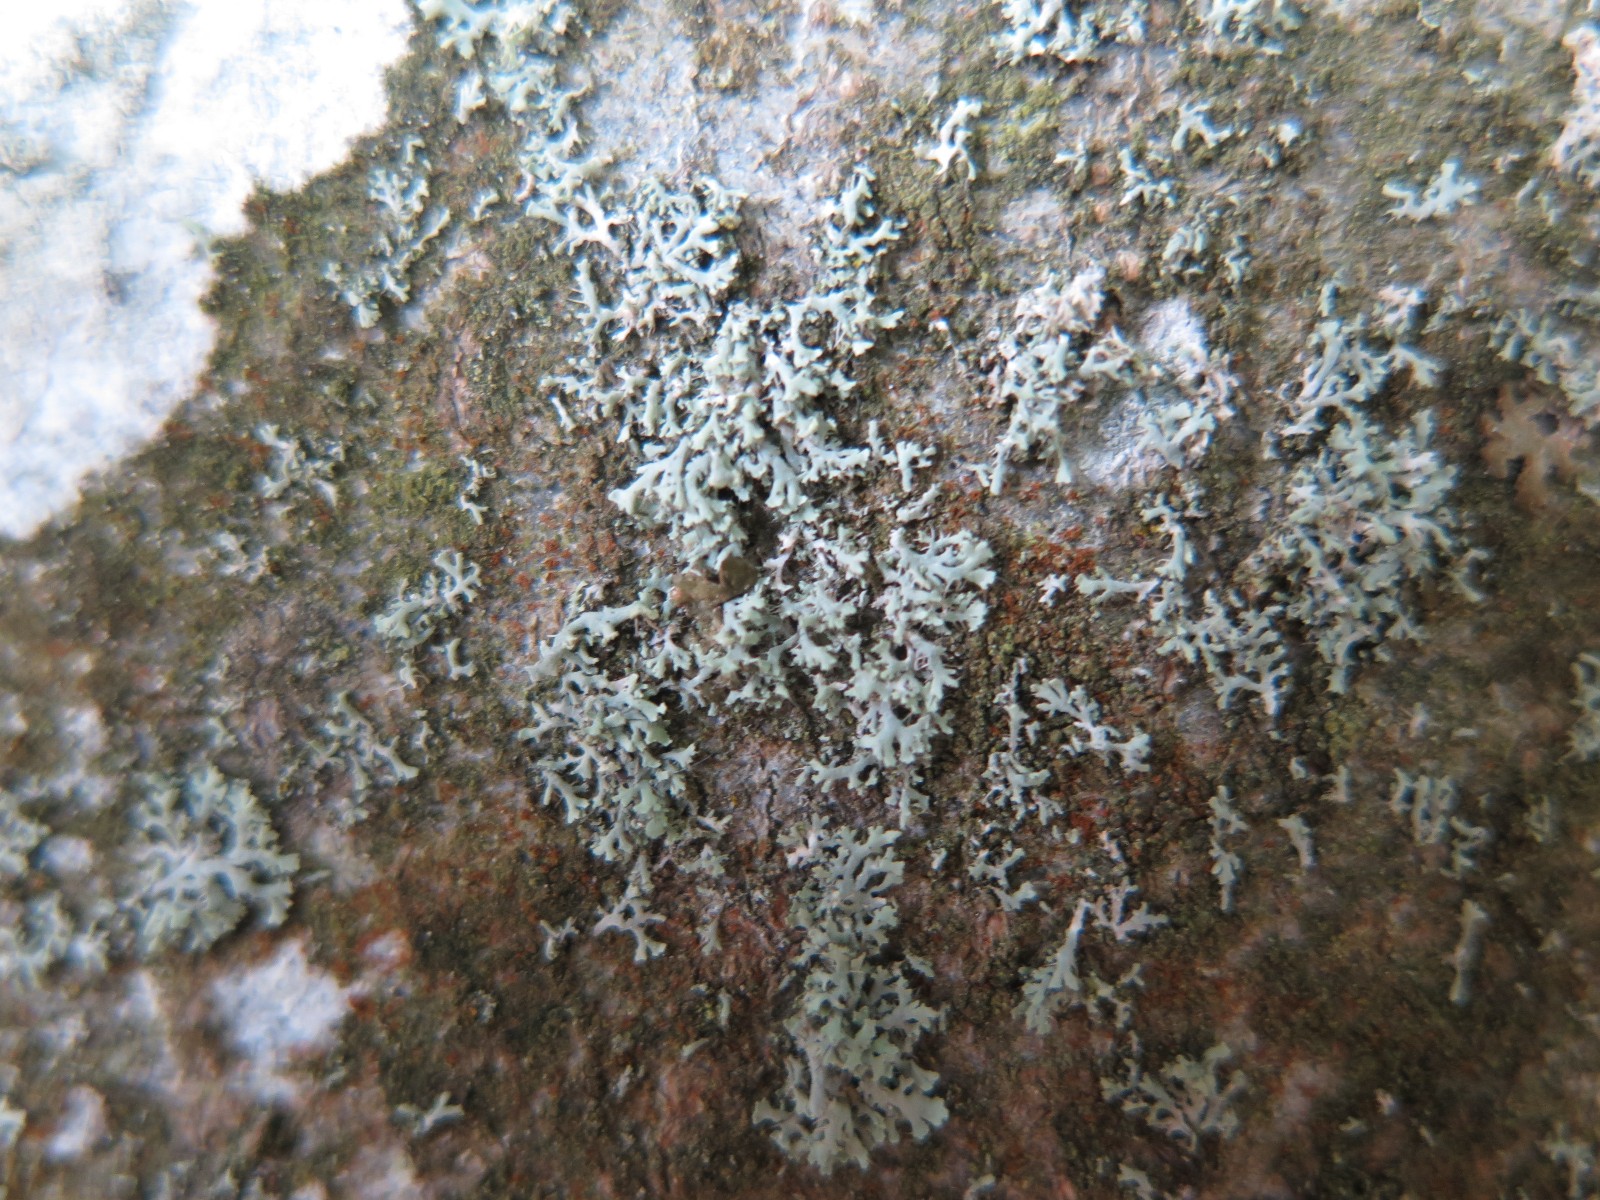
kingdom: Fungi
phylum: Ascomycota
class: Lecanoromycetes
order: Caliciales
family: Physciaceae
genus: Physcia
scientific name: Physcia tenella
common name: spæd rosetlav
